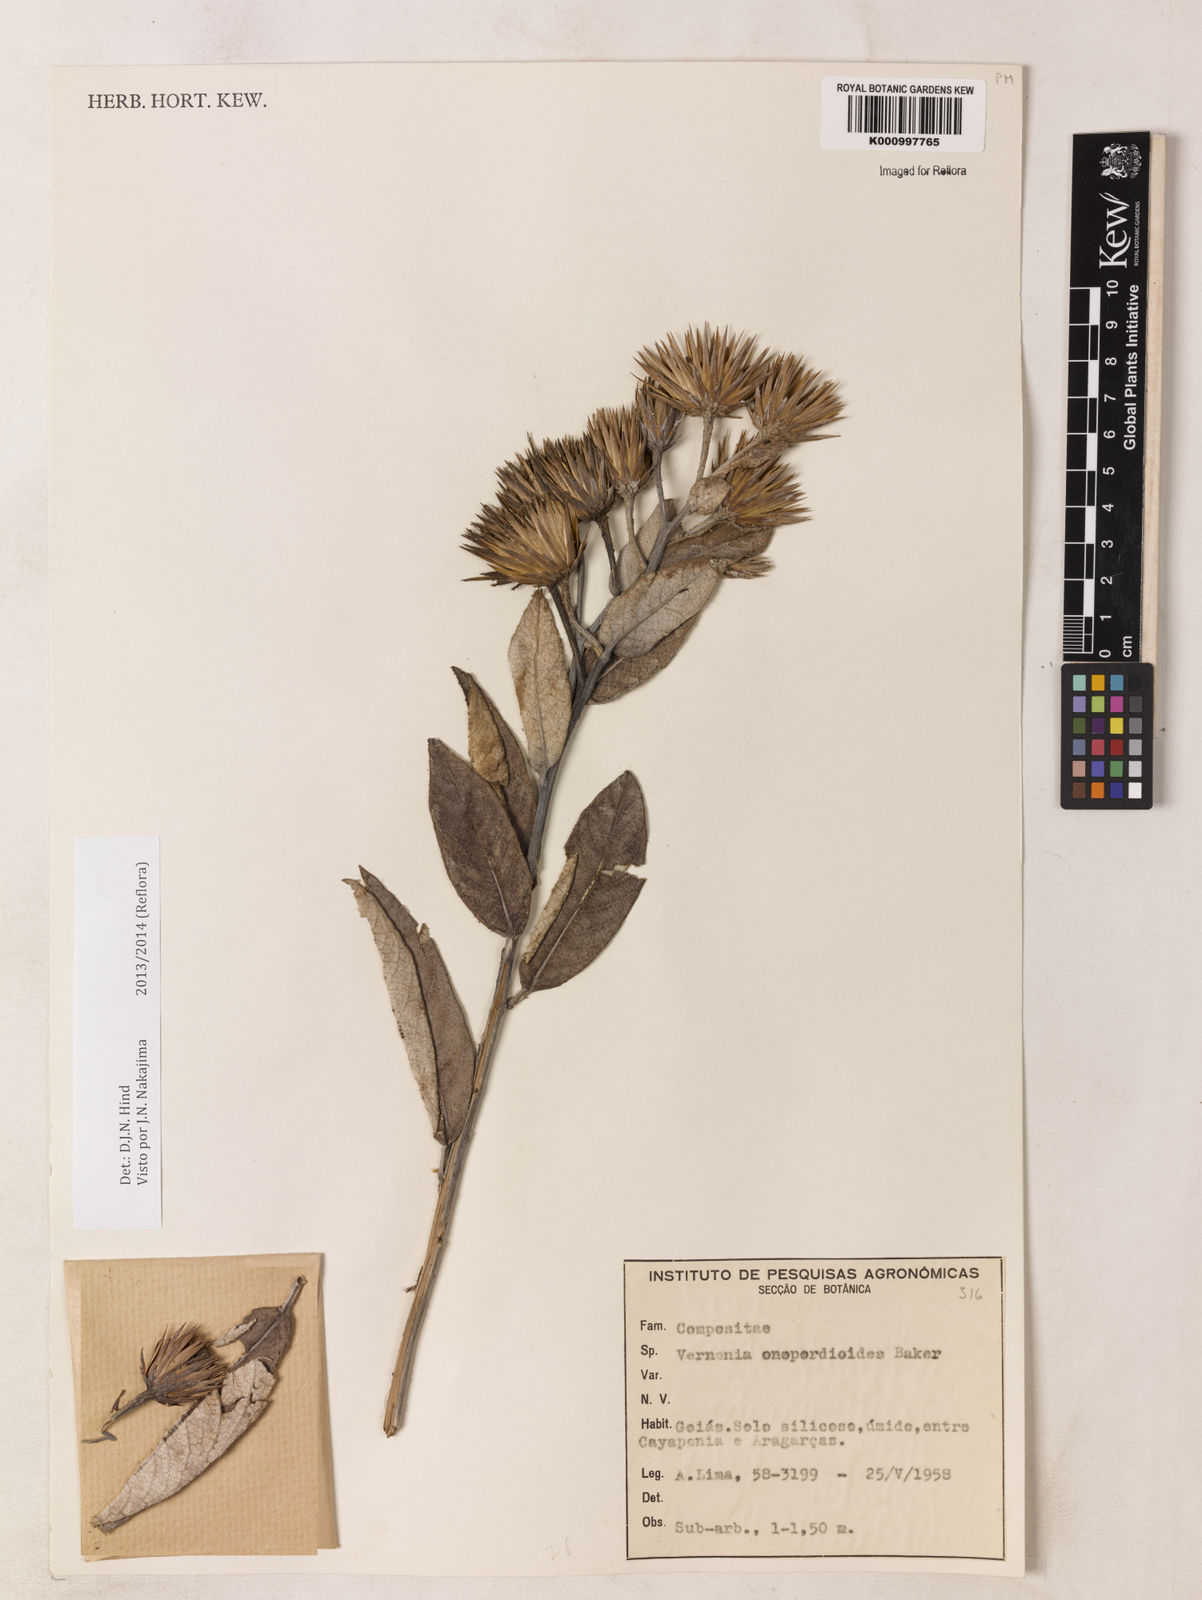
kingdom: Plantae
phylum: Tracheophyta
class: Magnoliopsida
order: Asterales
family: Asteraceae
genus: Lessingianthus
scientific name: Lessingianthus chamaepeuces
